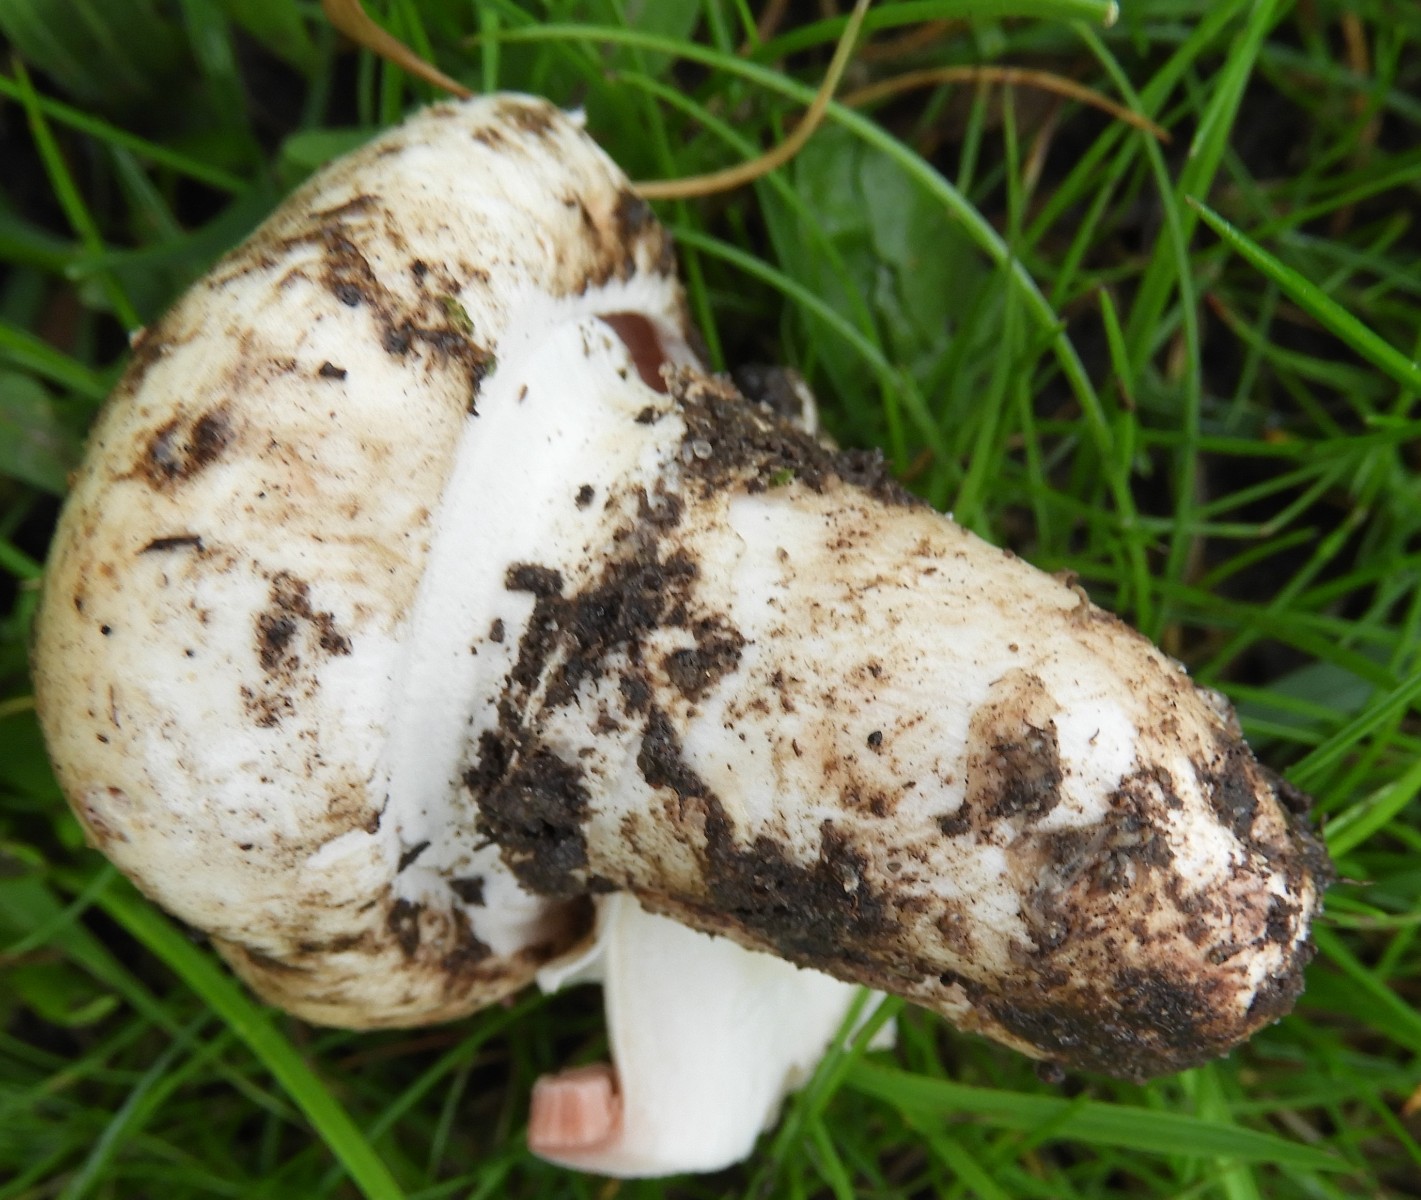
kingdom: Fungi
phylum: Basidiomycota
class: Agaricomycetes
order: Agaricales
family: Agaricaceae
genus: Agaricus
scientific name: Agaricus bitorquis
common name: vej-champignon
